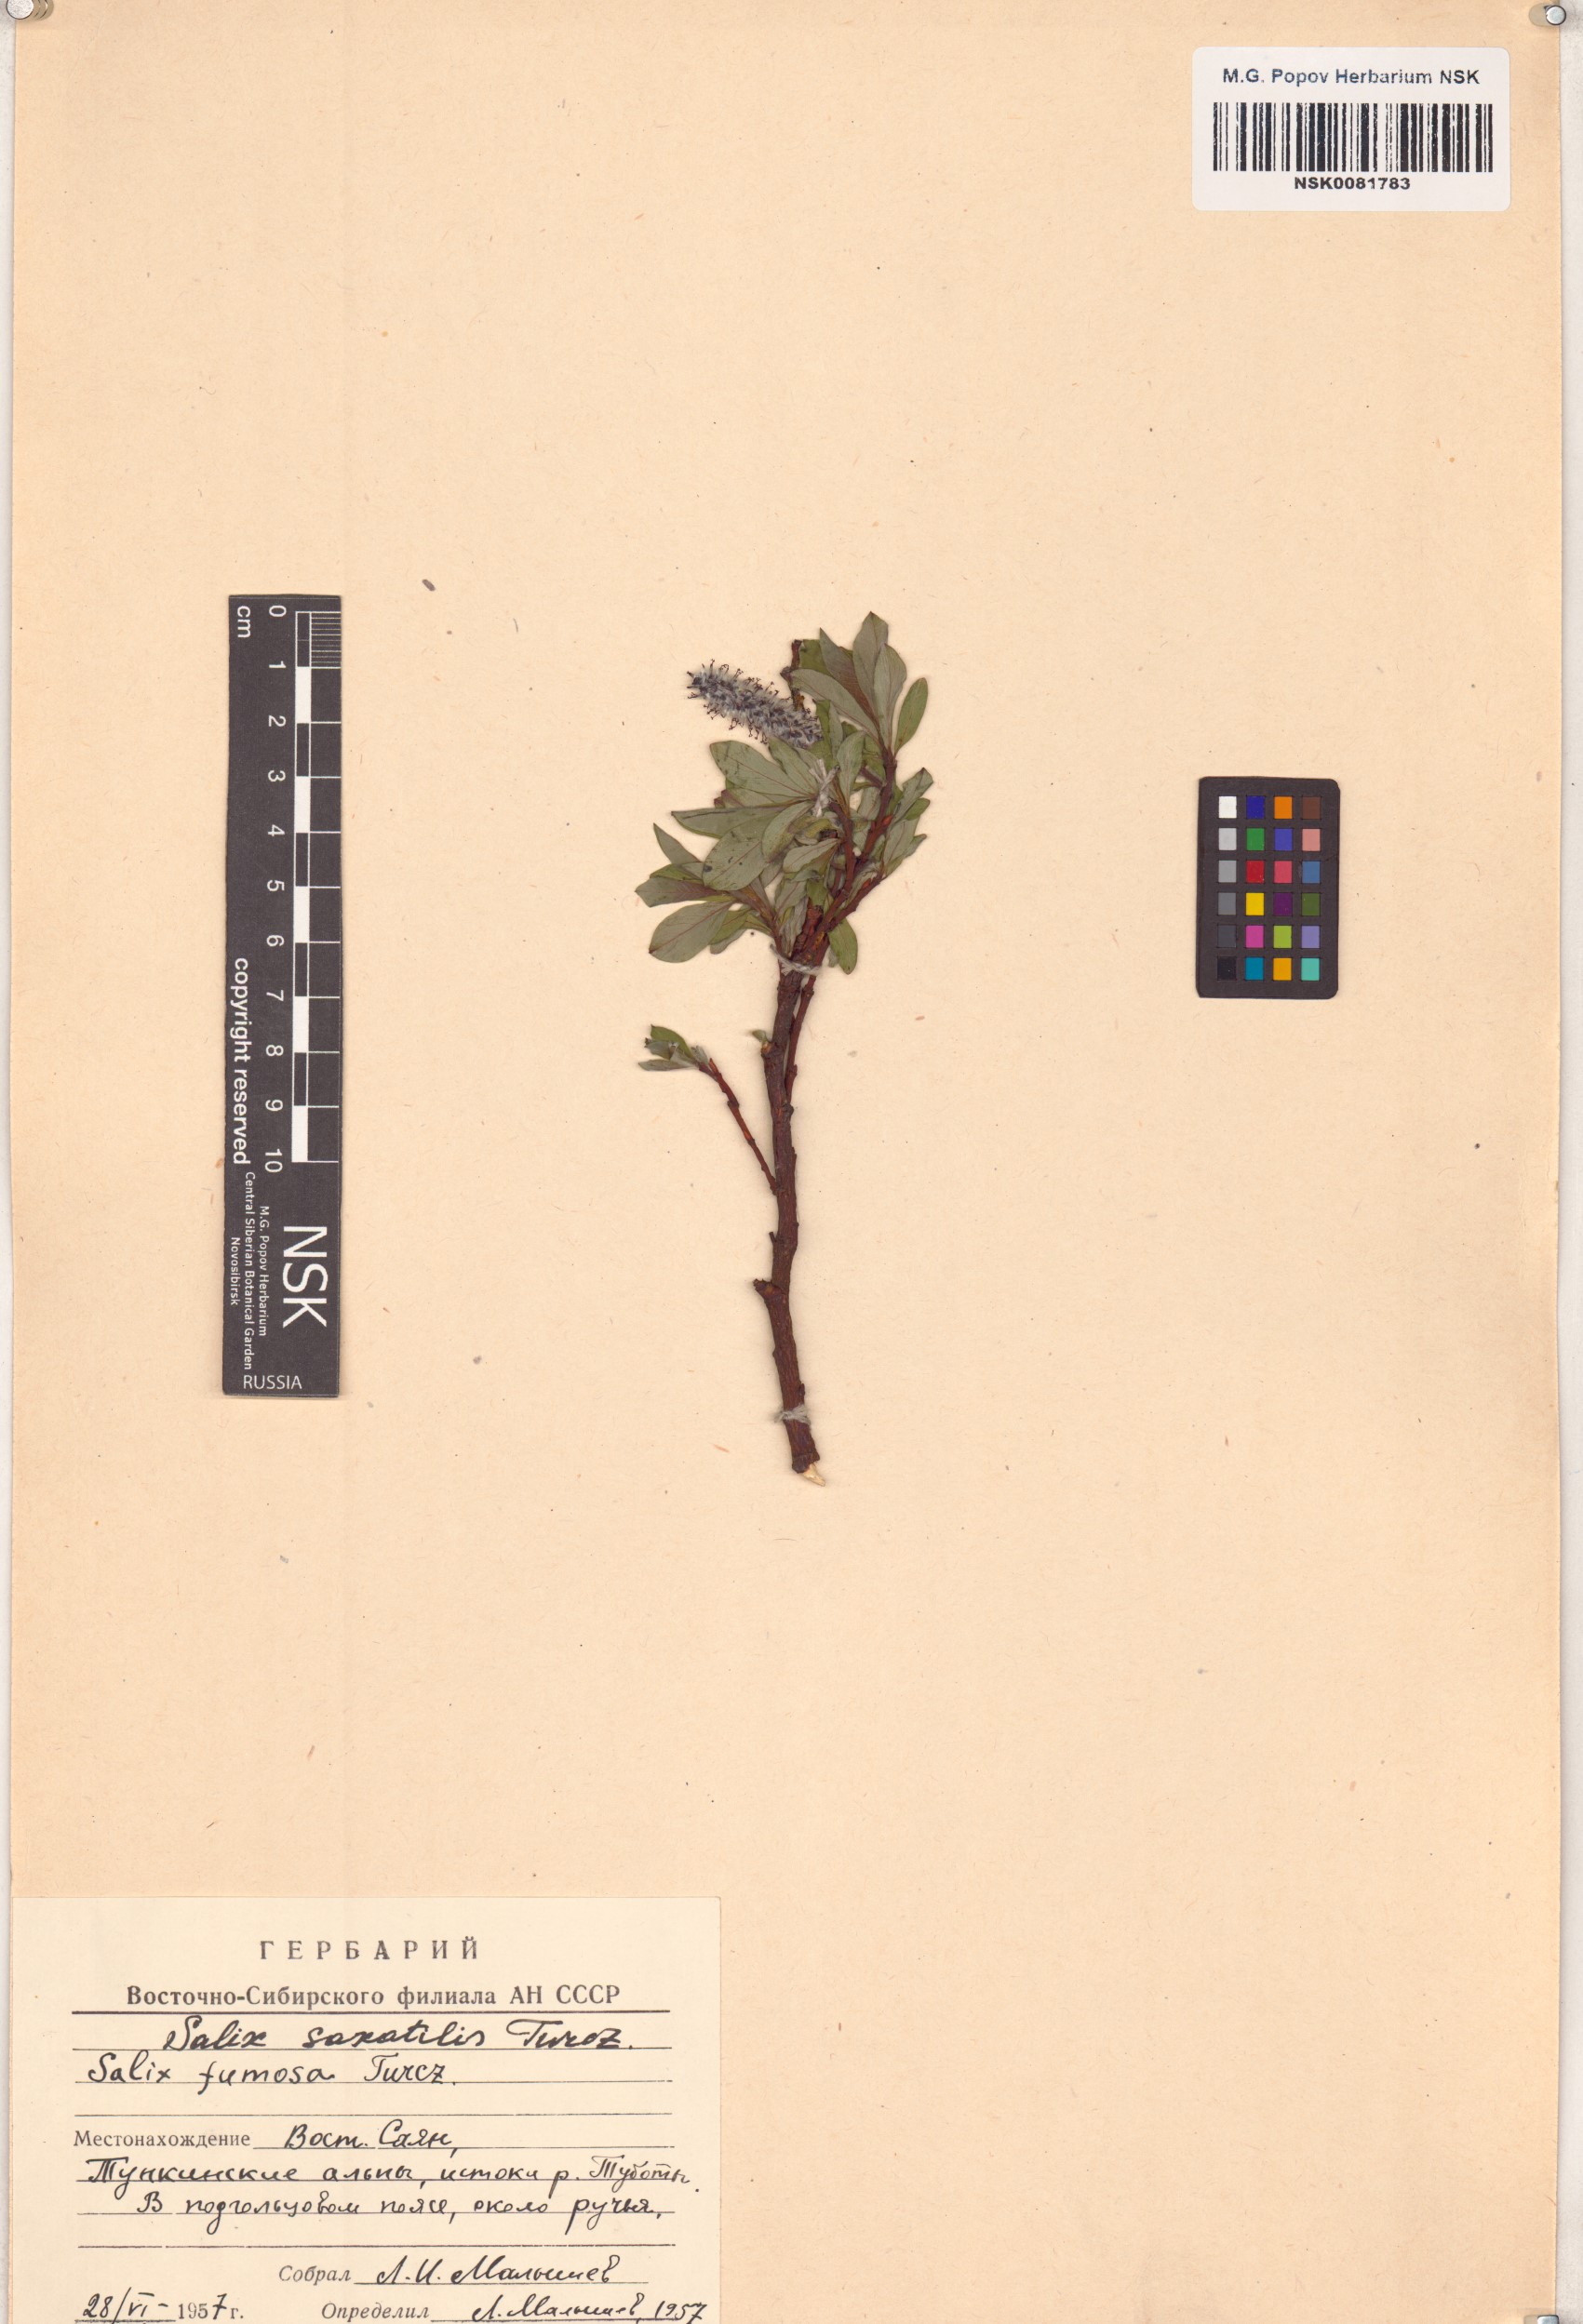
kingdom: Plantae
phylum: Tracheophyta
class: Magnoliopsida
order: Malpighiales
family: Salicaceae
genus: Salix
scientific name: Salix saxatilis
